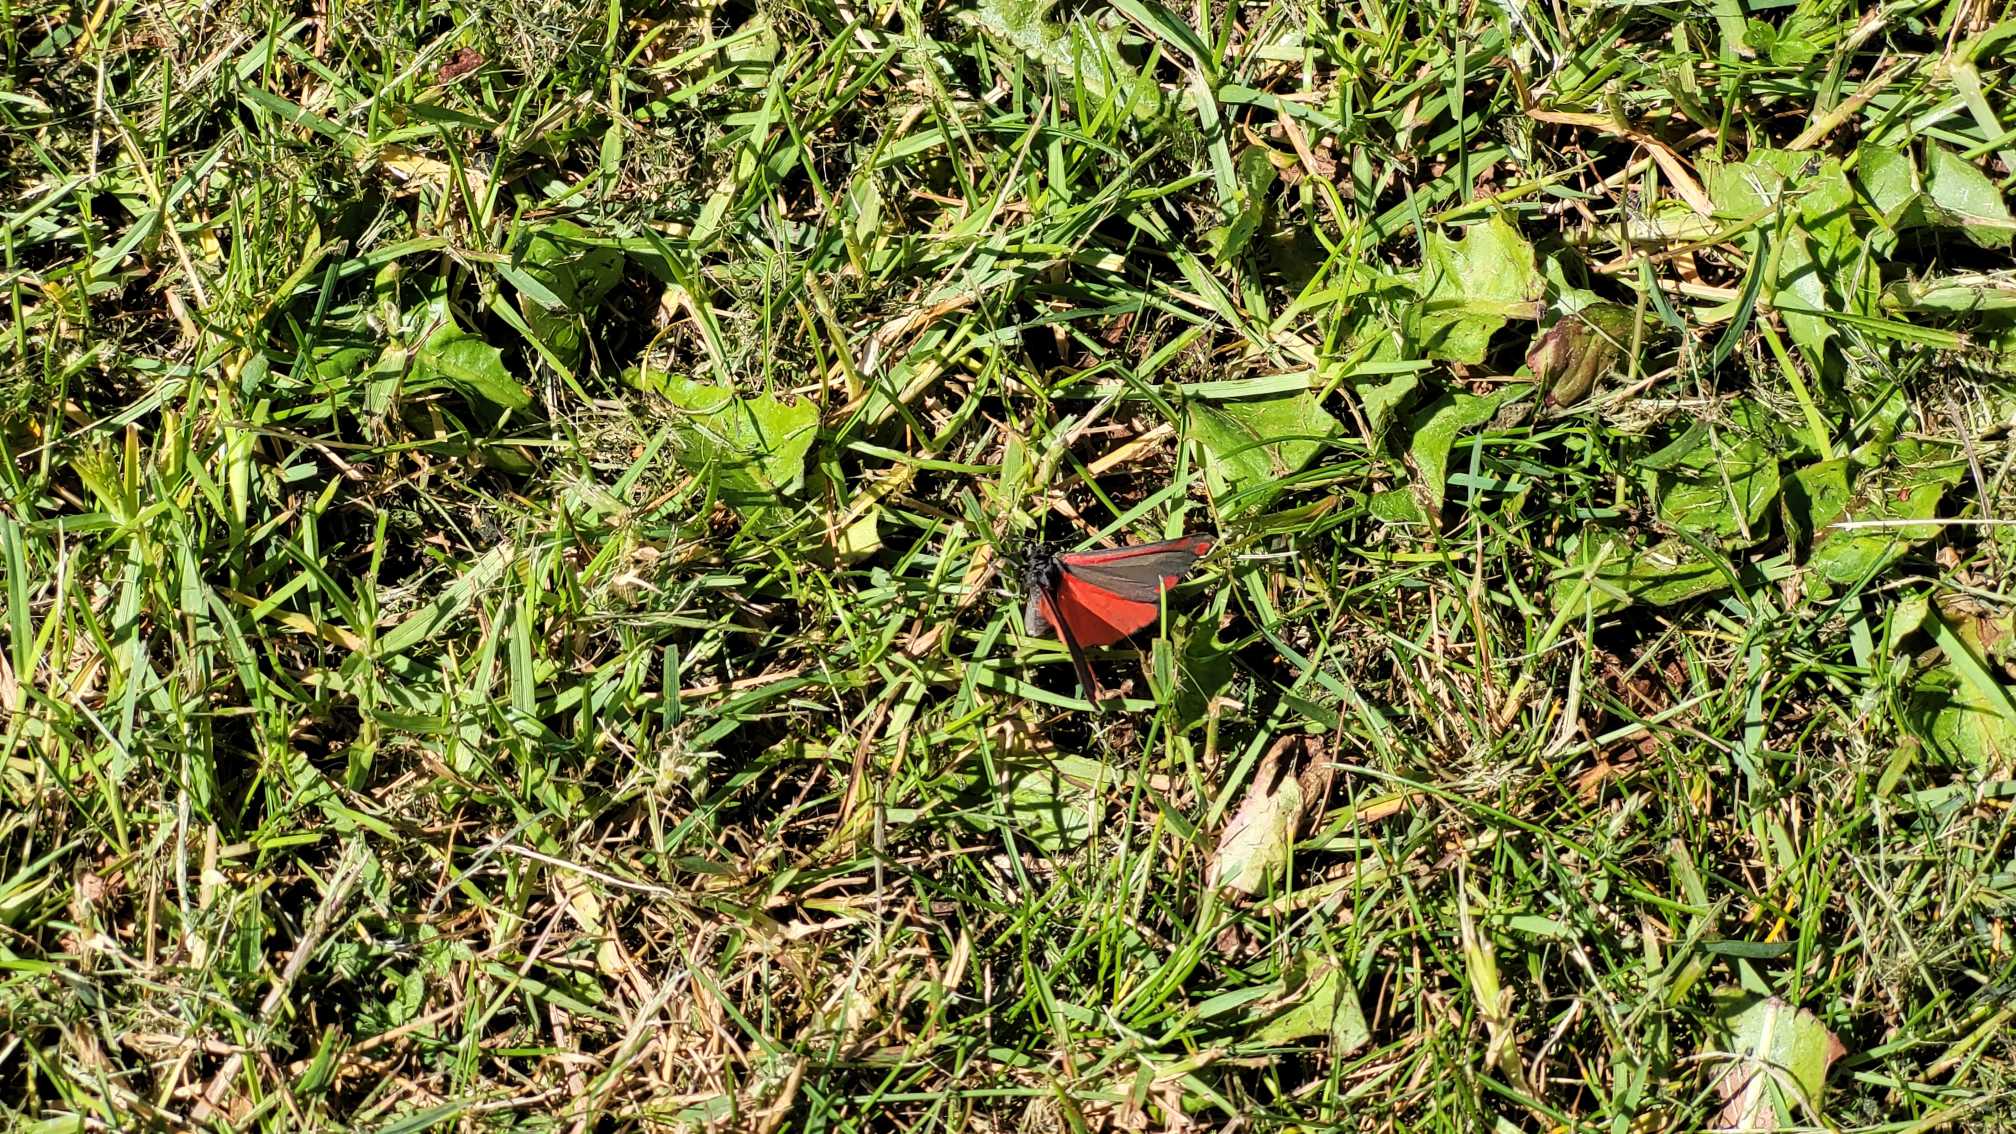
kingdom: Animalia
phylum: Arthropoda
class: Insecta
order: Lepidoptera
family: Erebidae
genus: Tyria
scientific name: Tyria jacobaeae
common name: Blodplet
